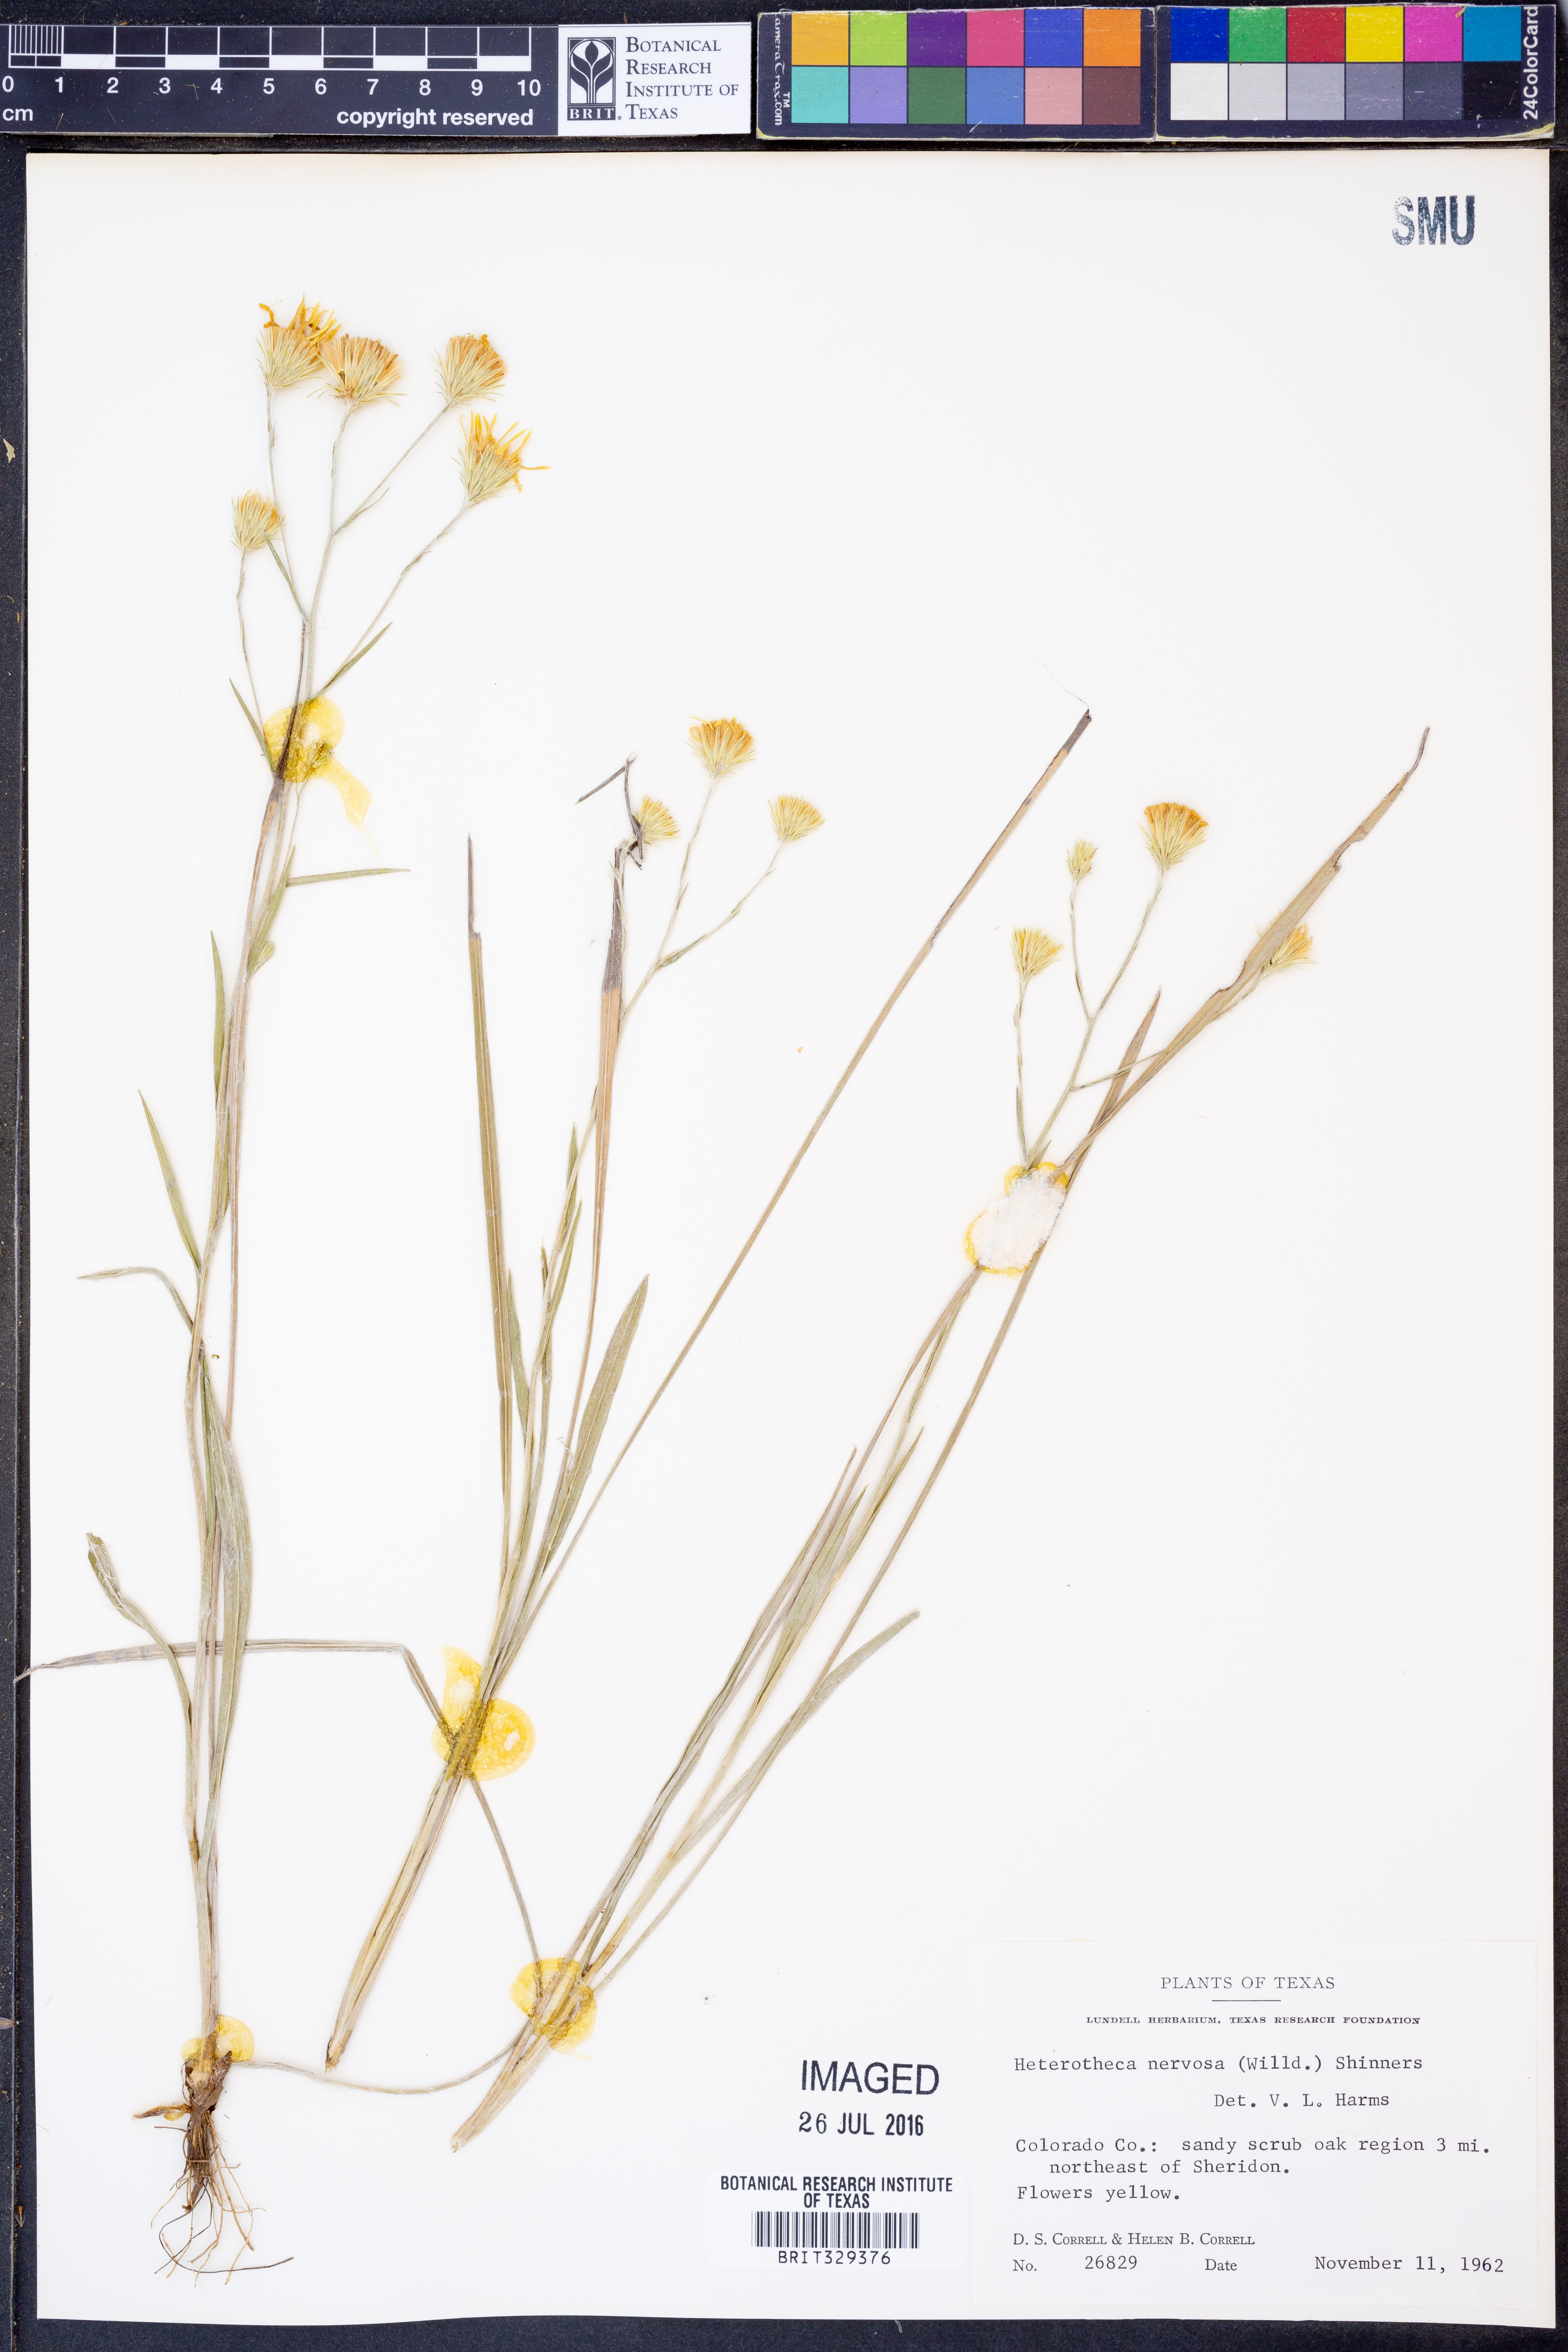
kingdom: Plantae
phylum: Tracheophyta
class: Magnoliopsida
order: Asterales
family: Asteraceae
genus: Pityopsis
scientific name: Pityopsis graminifolia
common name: Grass-leaf golden-aster
